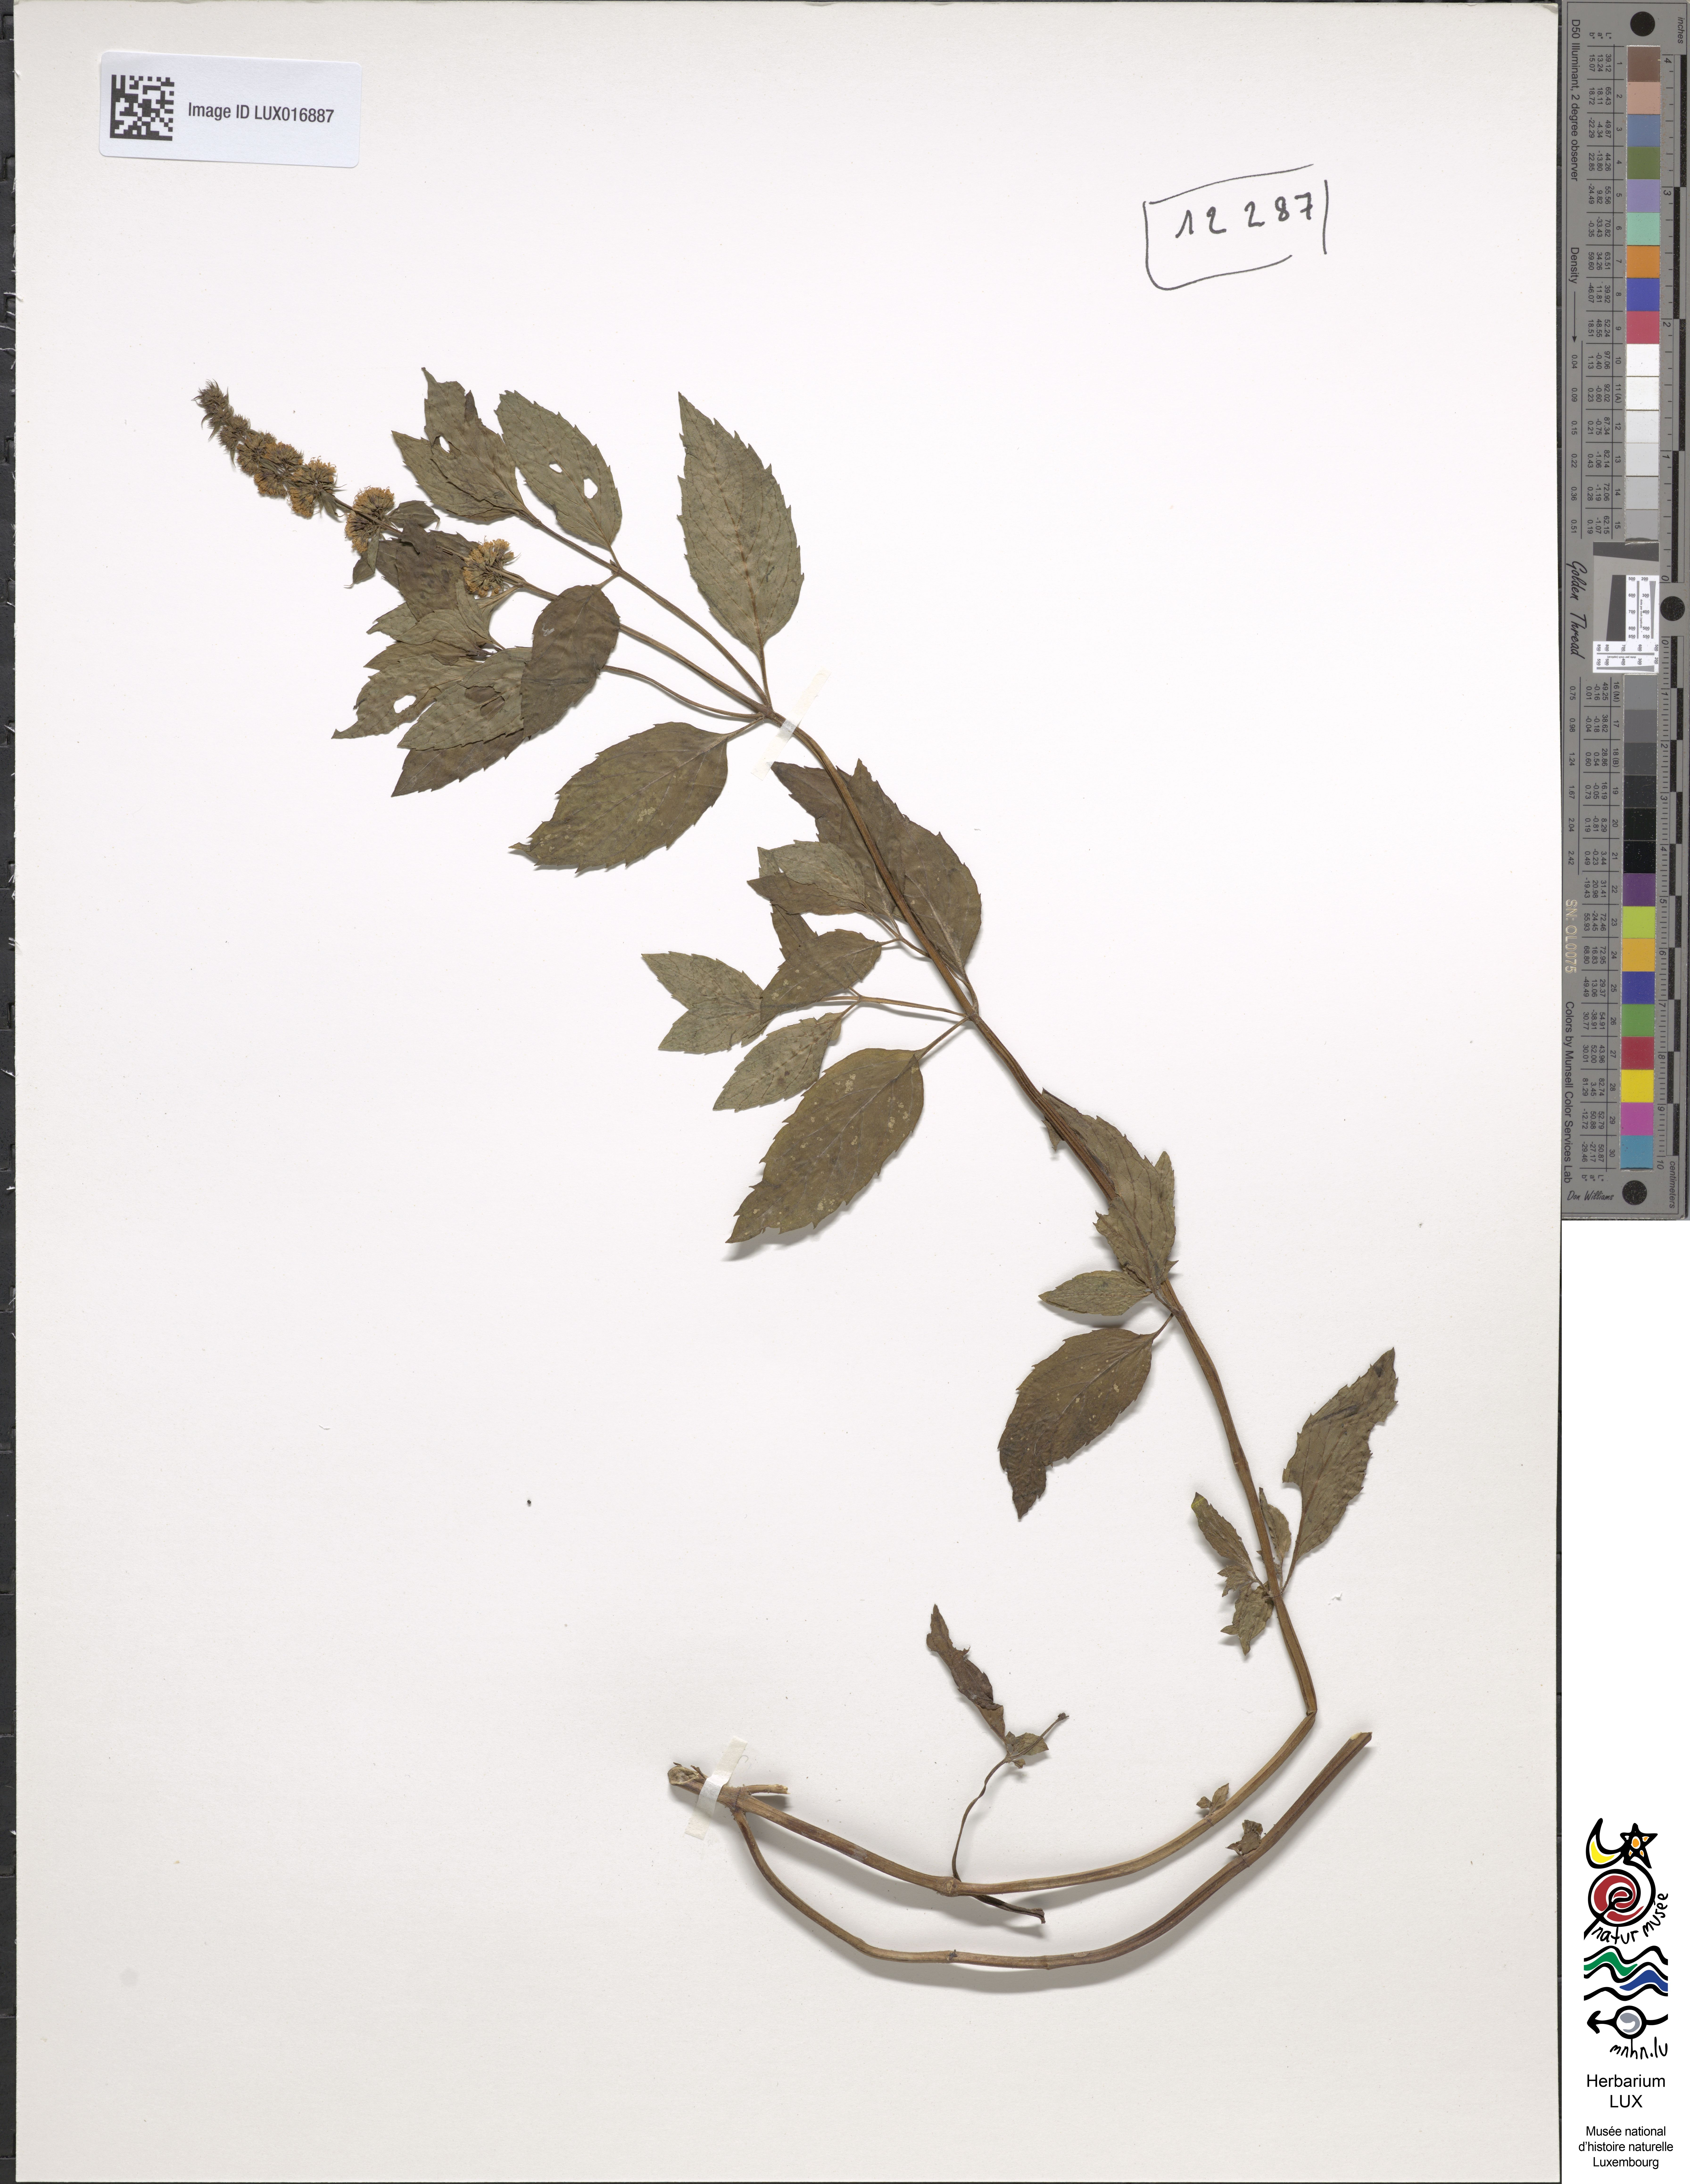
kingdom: Plantae
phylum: Tracheophyta
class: Magnoliopsida
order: Lamiales
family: Lamiaceae
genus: Mentha
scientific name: Mentha piperita
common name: Peppermint
